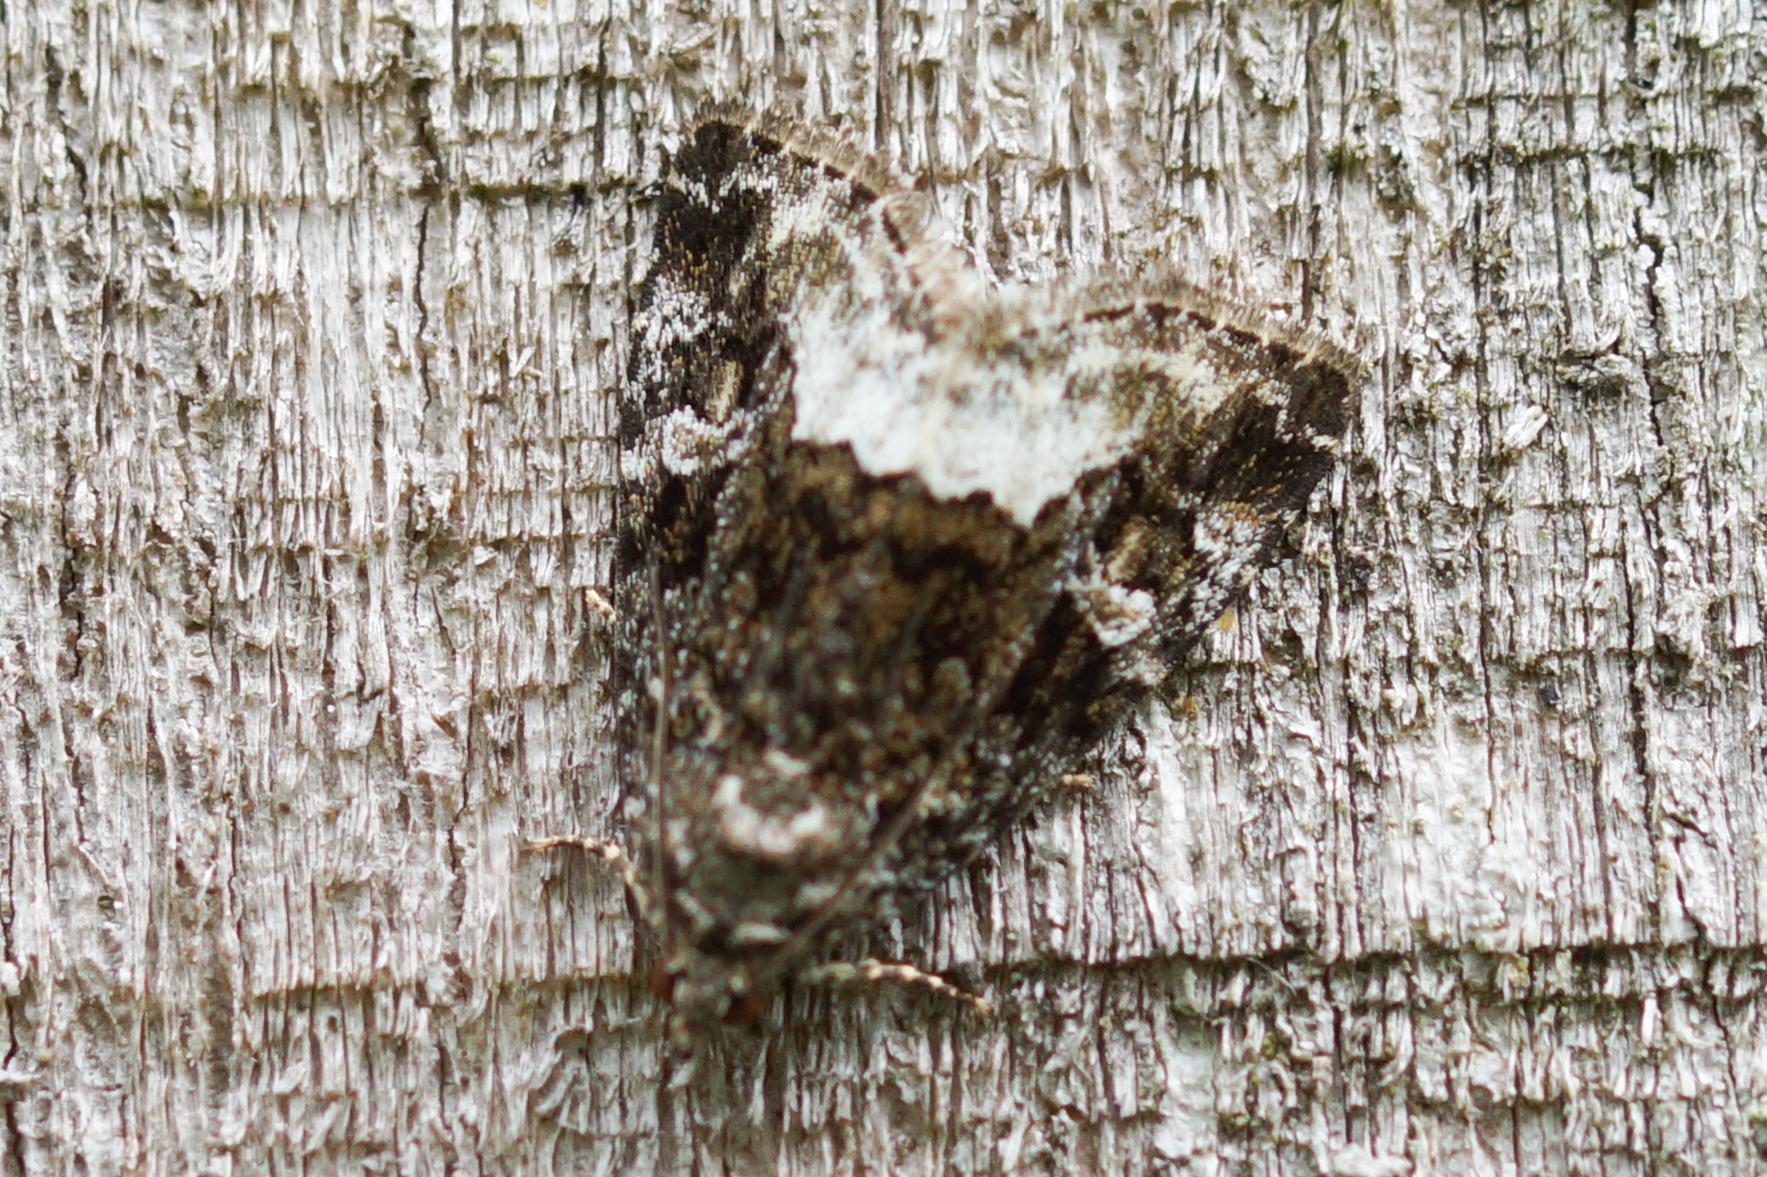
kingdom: Animalia
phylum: Arthropoda
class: Insecta
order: Lepidoptera
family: Noctuidae
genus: Deltote
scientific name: Deltote pygarga
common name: Hvidhjørnet dagugle
